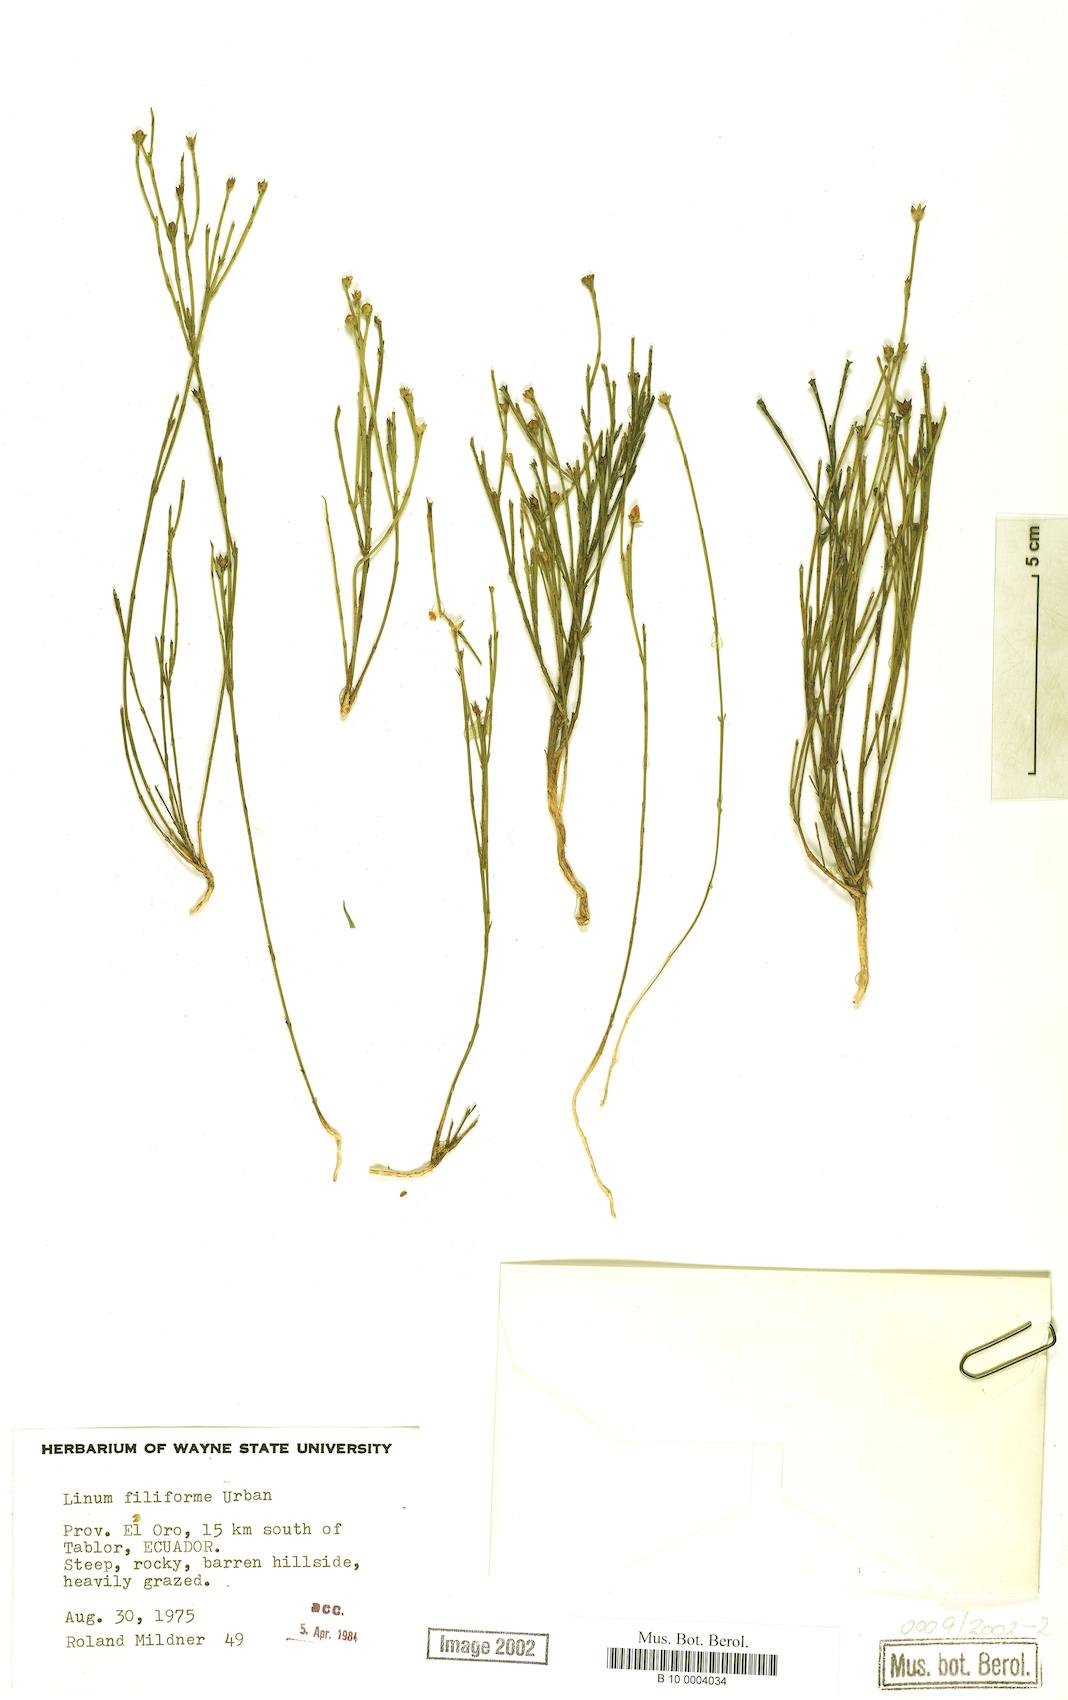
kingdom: Plantae
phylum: Tracheophyta
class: Magnoliopsida
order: Malpighiales
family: Linaceae
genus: Linum
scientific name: Linum filiforme
